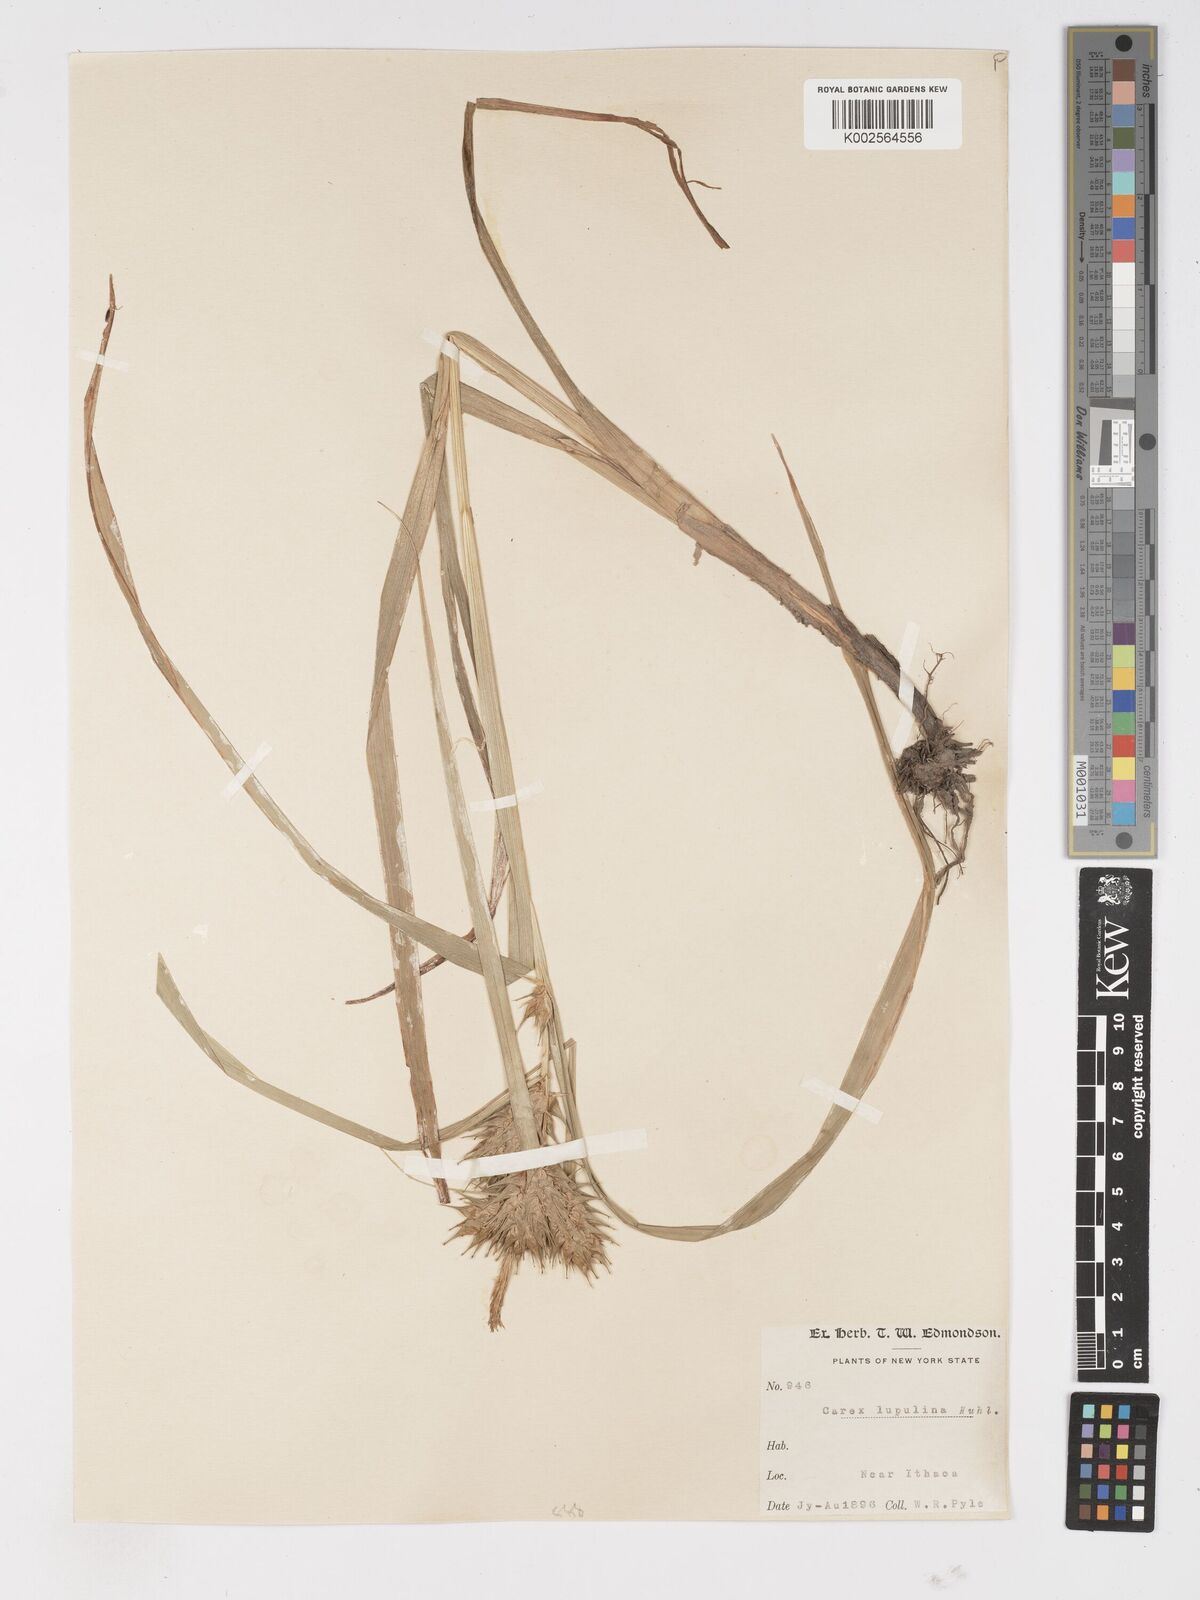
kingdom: Plantae
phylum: Tracheophyta
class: Liliopsida
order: Poales
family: Cyperaceae
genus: Carex
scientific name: Carex lupulina
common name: Hop sedge
